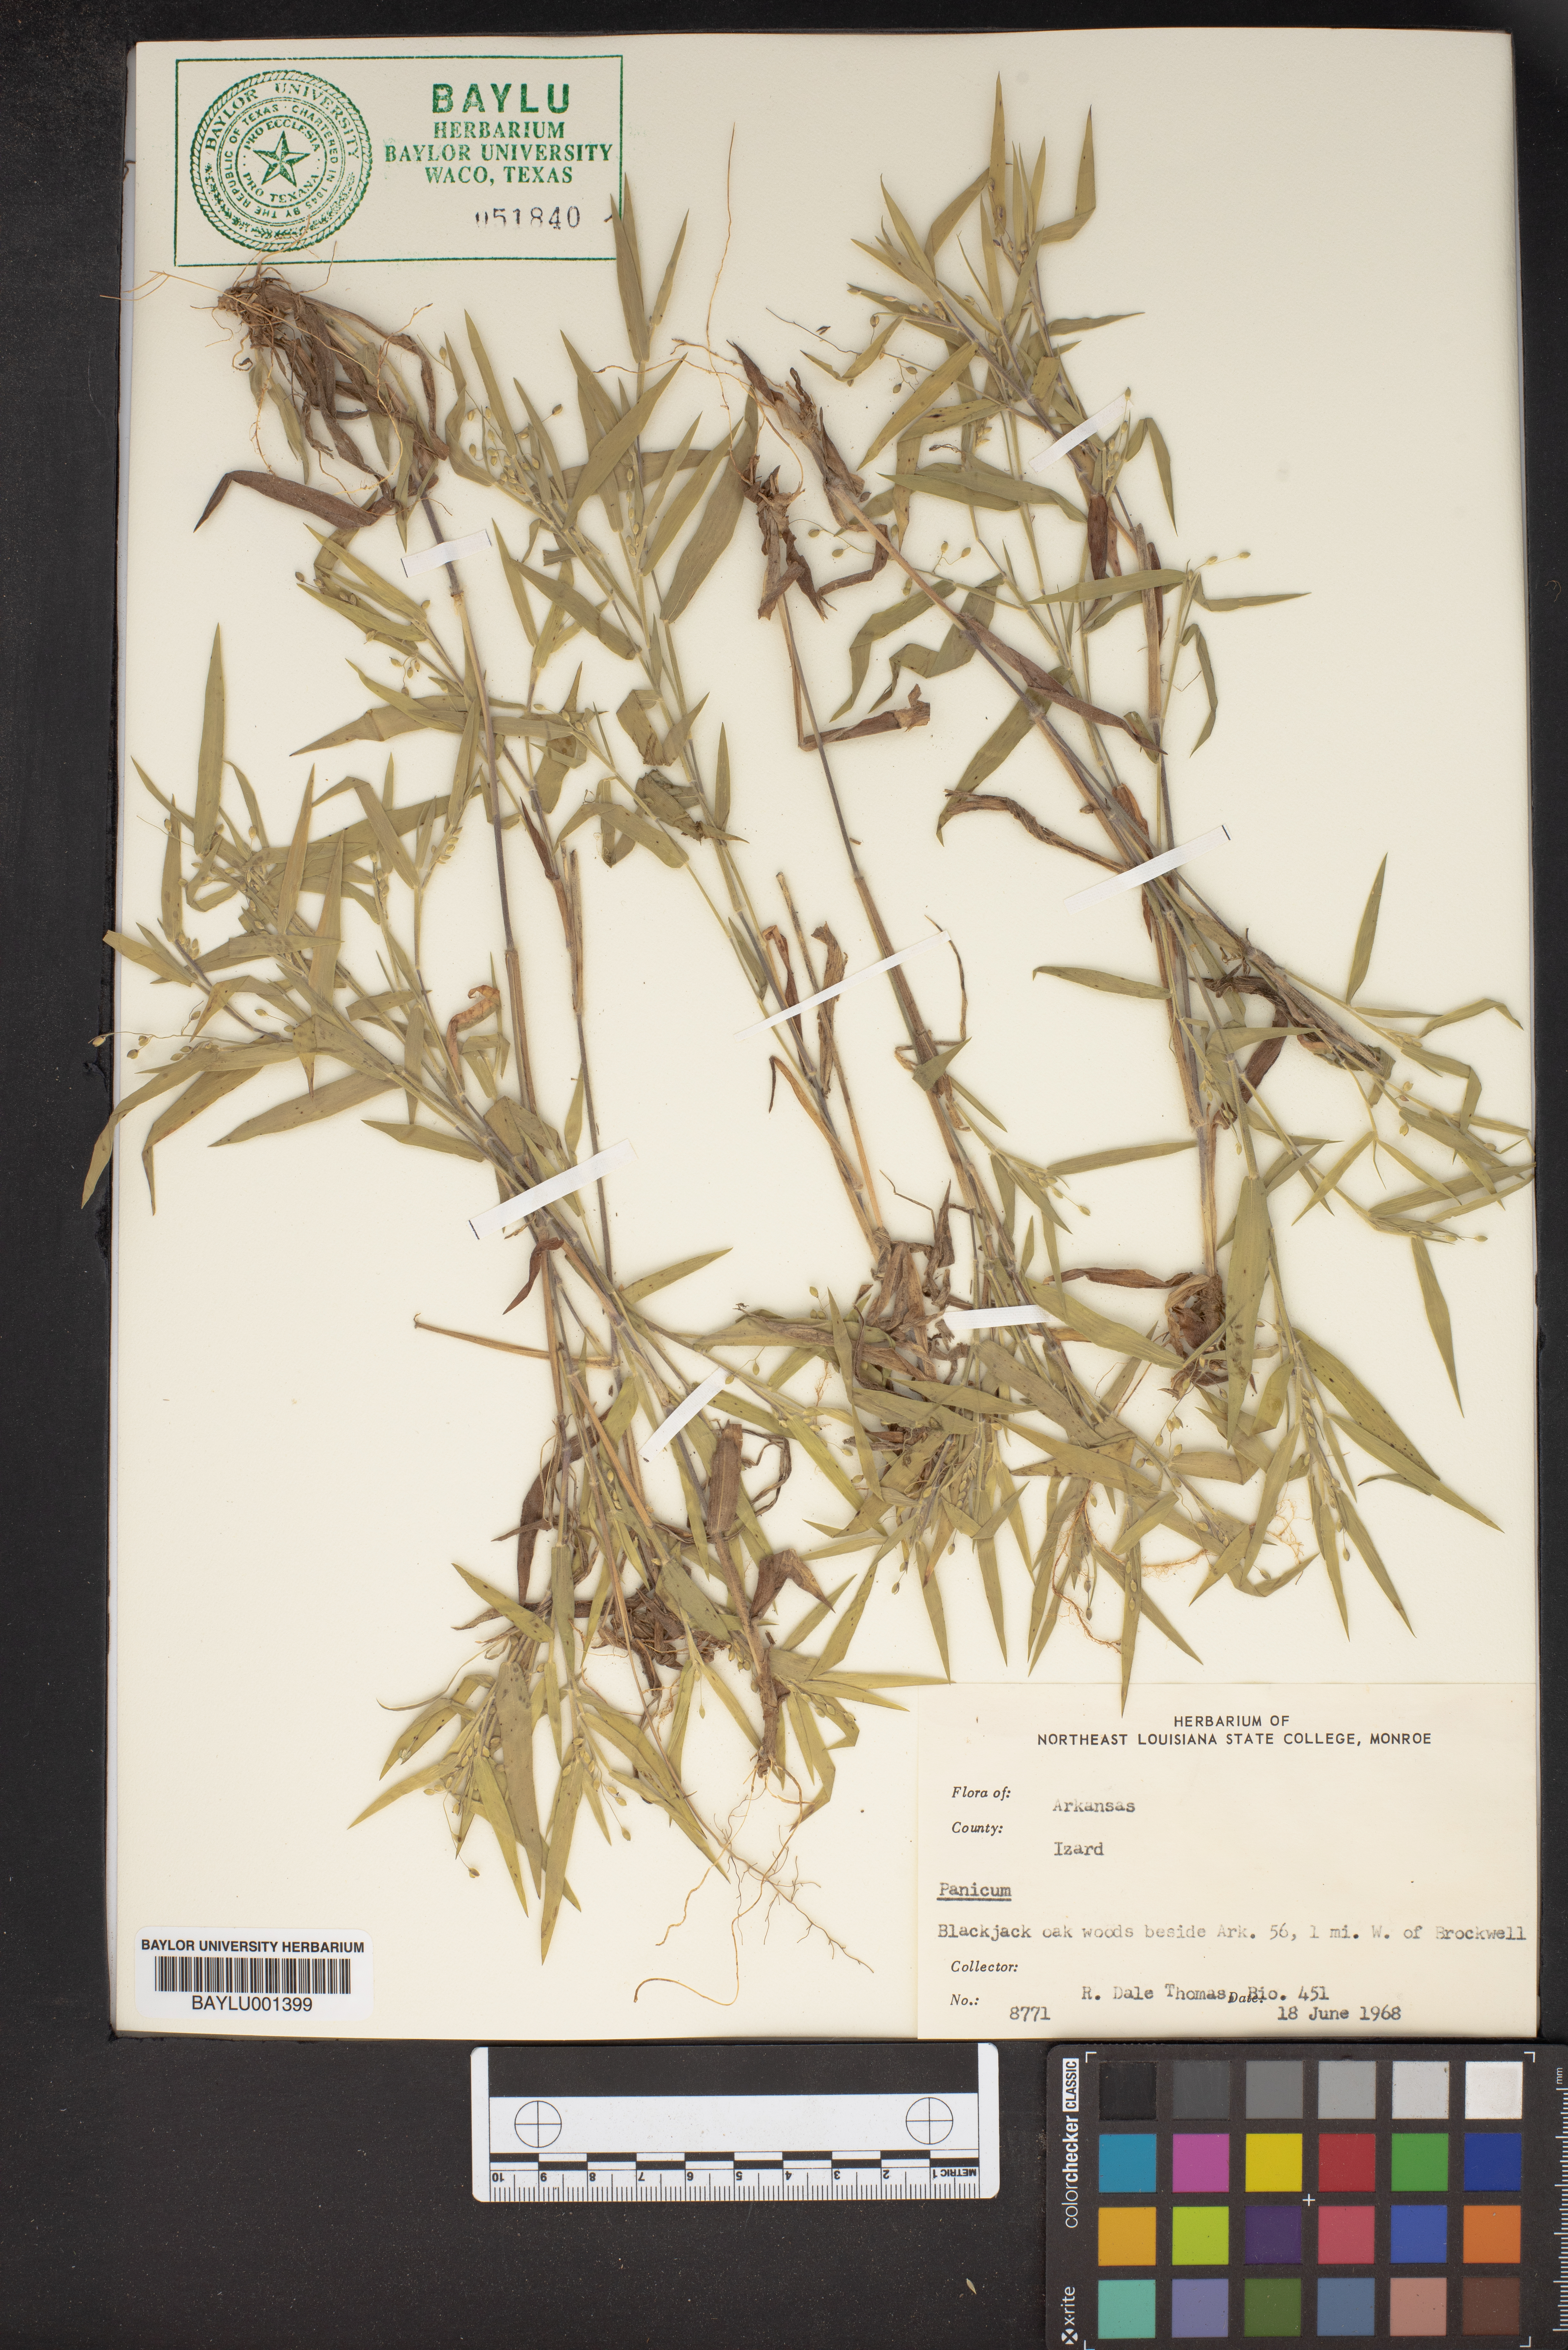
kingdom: Plantae
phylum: Tracheophyta
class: Liliopsida
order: Poales
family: Poaceae
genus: Panicum
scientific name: Panicum
